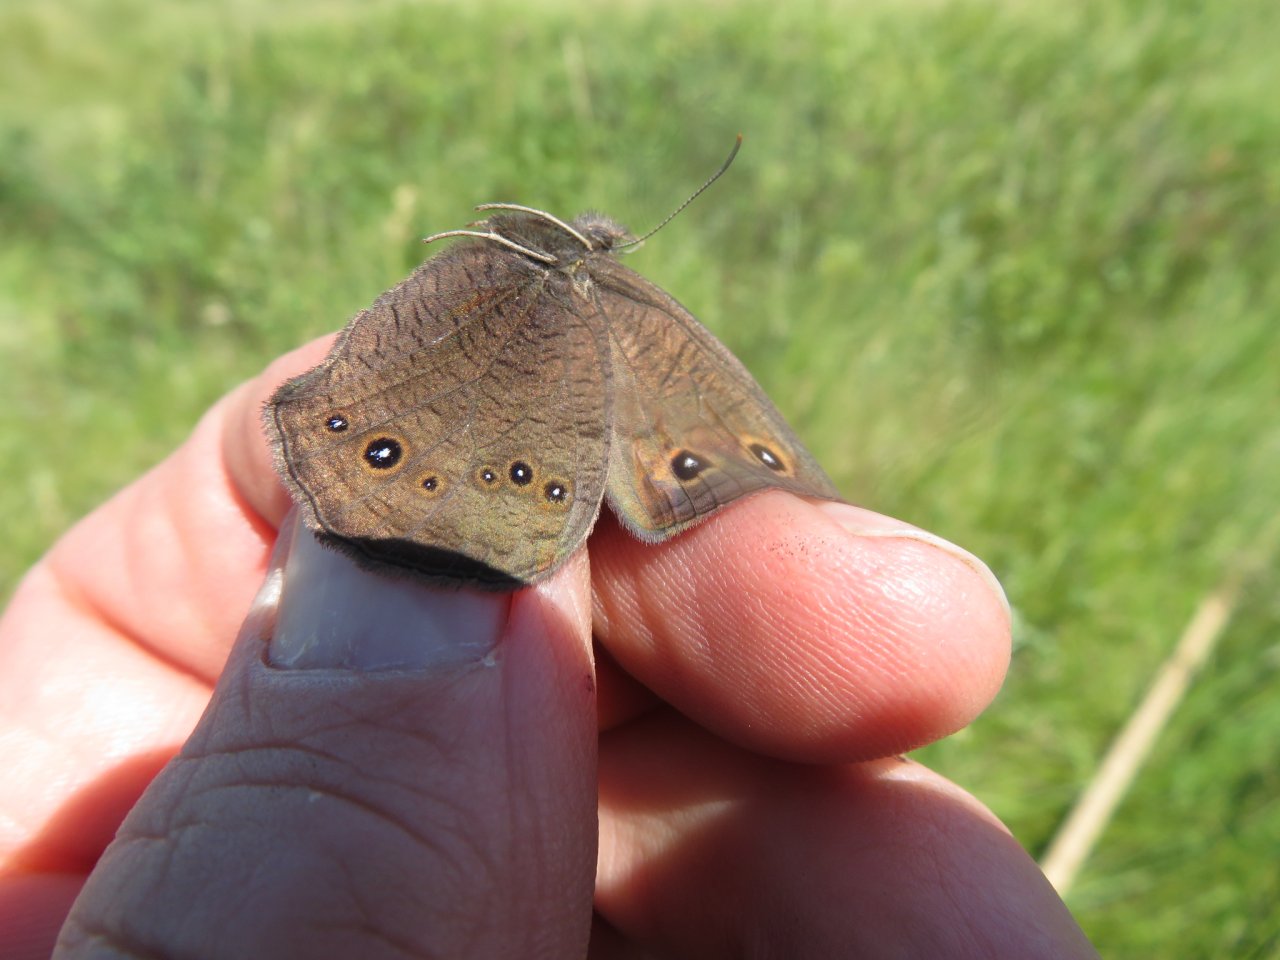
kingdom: Animalia
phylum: Arthropoda
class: Insecta
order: Lepidoptera
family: Nymphalidae
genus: Cercyonis
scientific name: Cercyonis pegala
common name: Common Wood-Nymph
